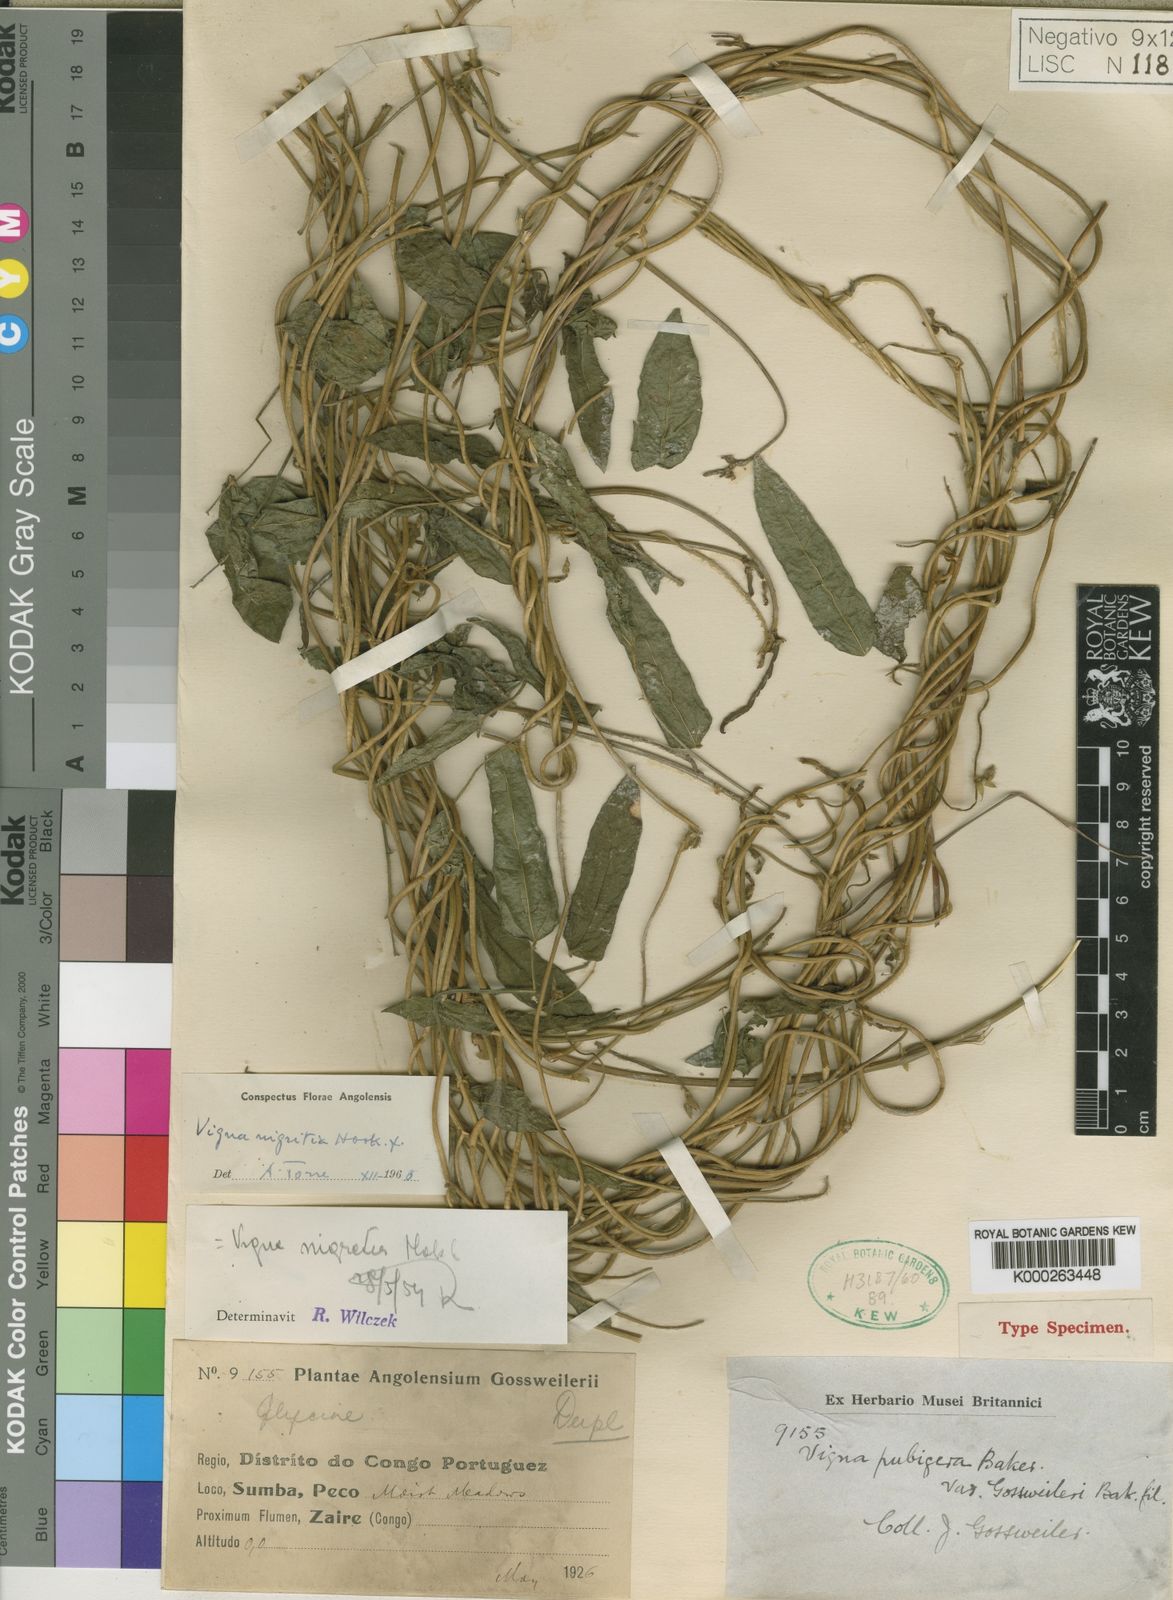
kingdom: Plantae
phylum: Tracheophyta
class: Magnoliopsida
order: Fabales
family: Fabaceae
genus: Vigna
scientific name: Vigna nigritia
